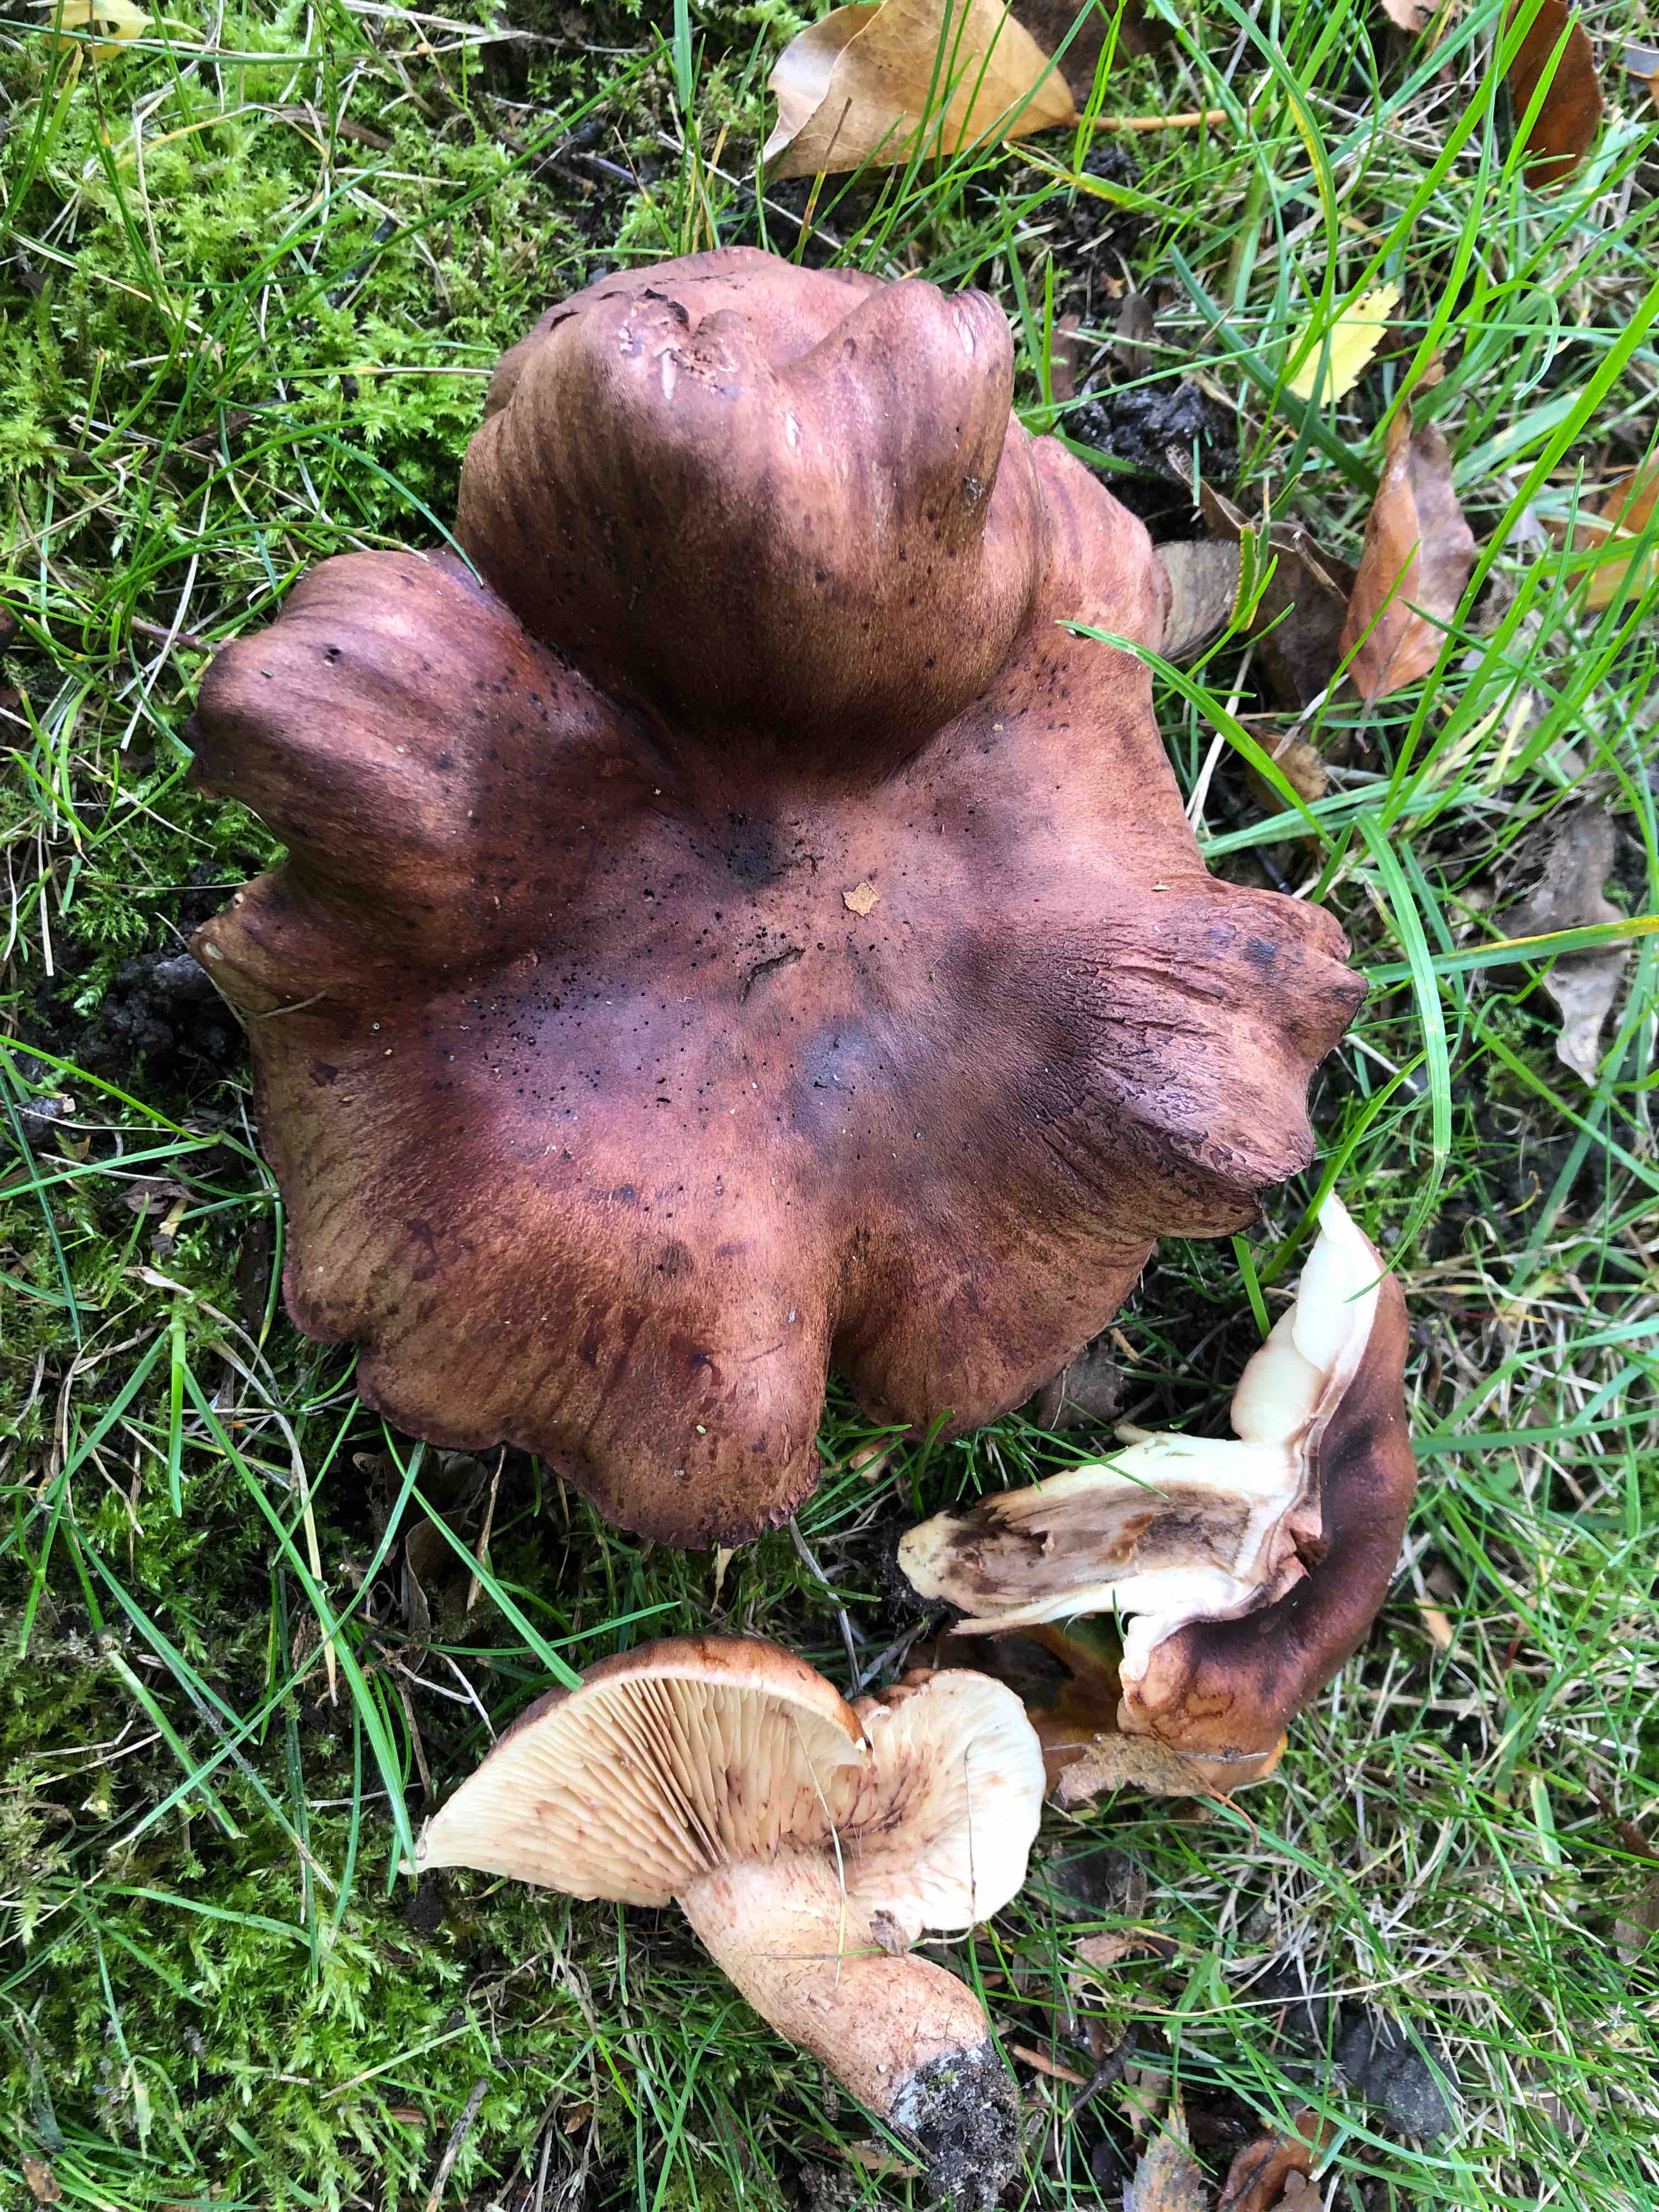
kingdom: Fungi
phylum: Basidiomycota
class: Agaricomycetes
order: Agaricales
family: Tricholomataceae
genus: Tricholoma
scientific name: Tricholoma fulvum
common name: birke-ridderhat
